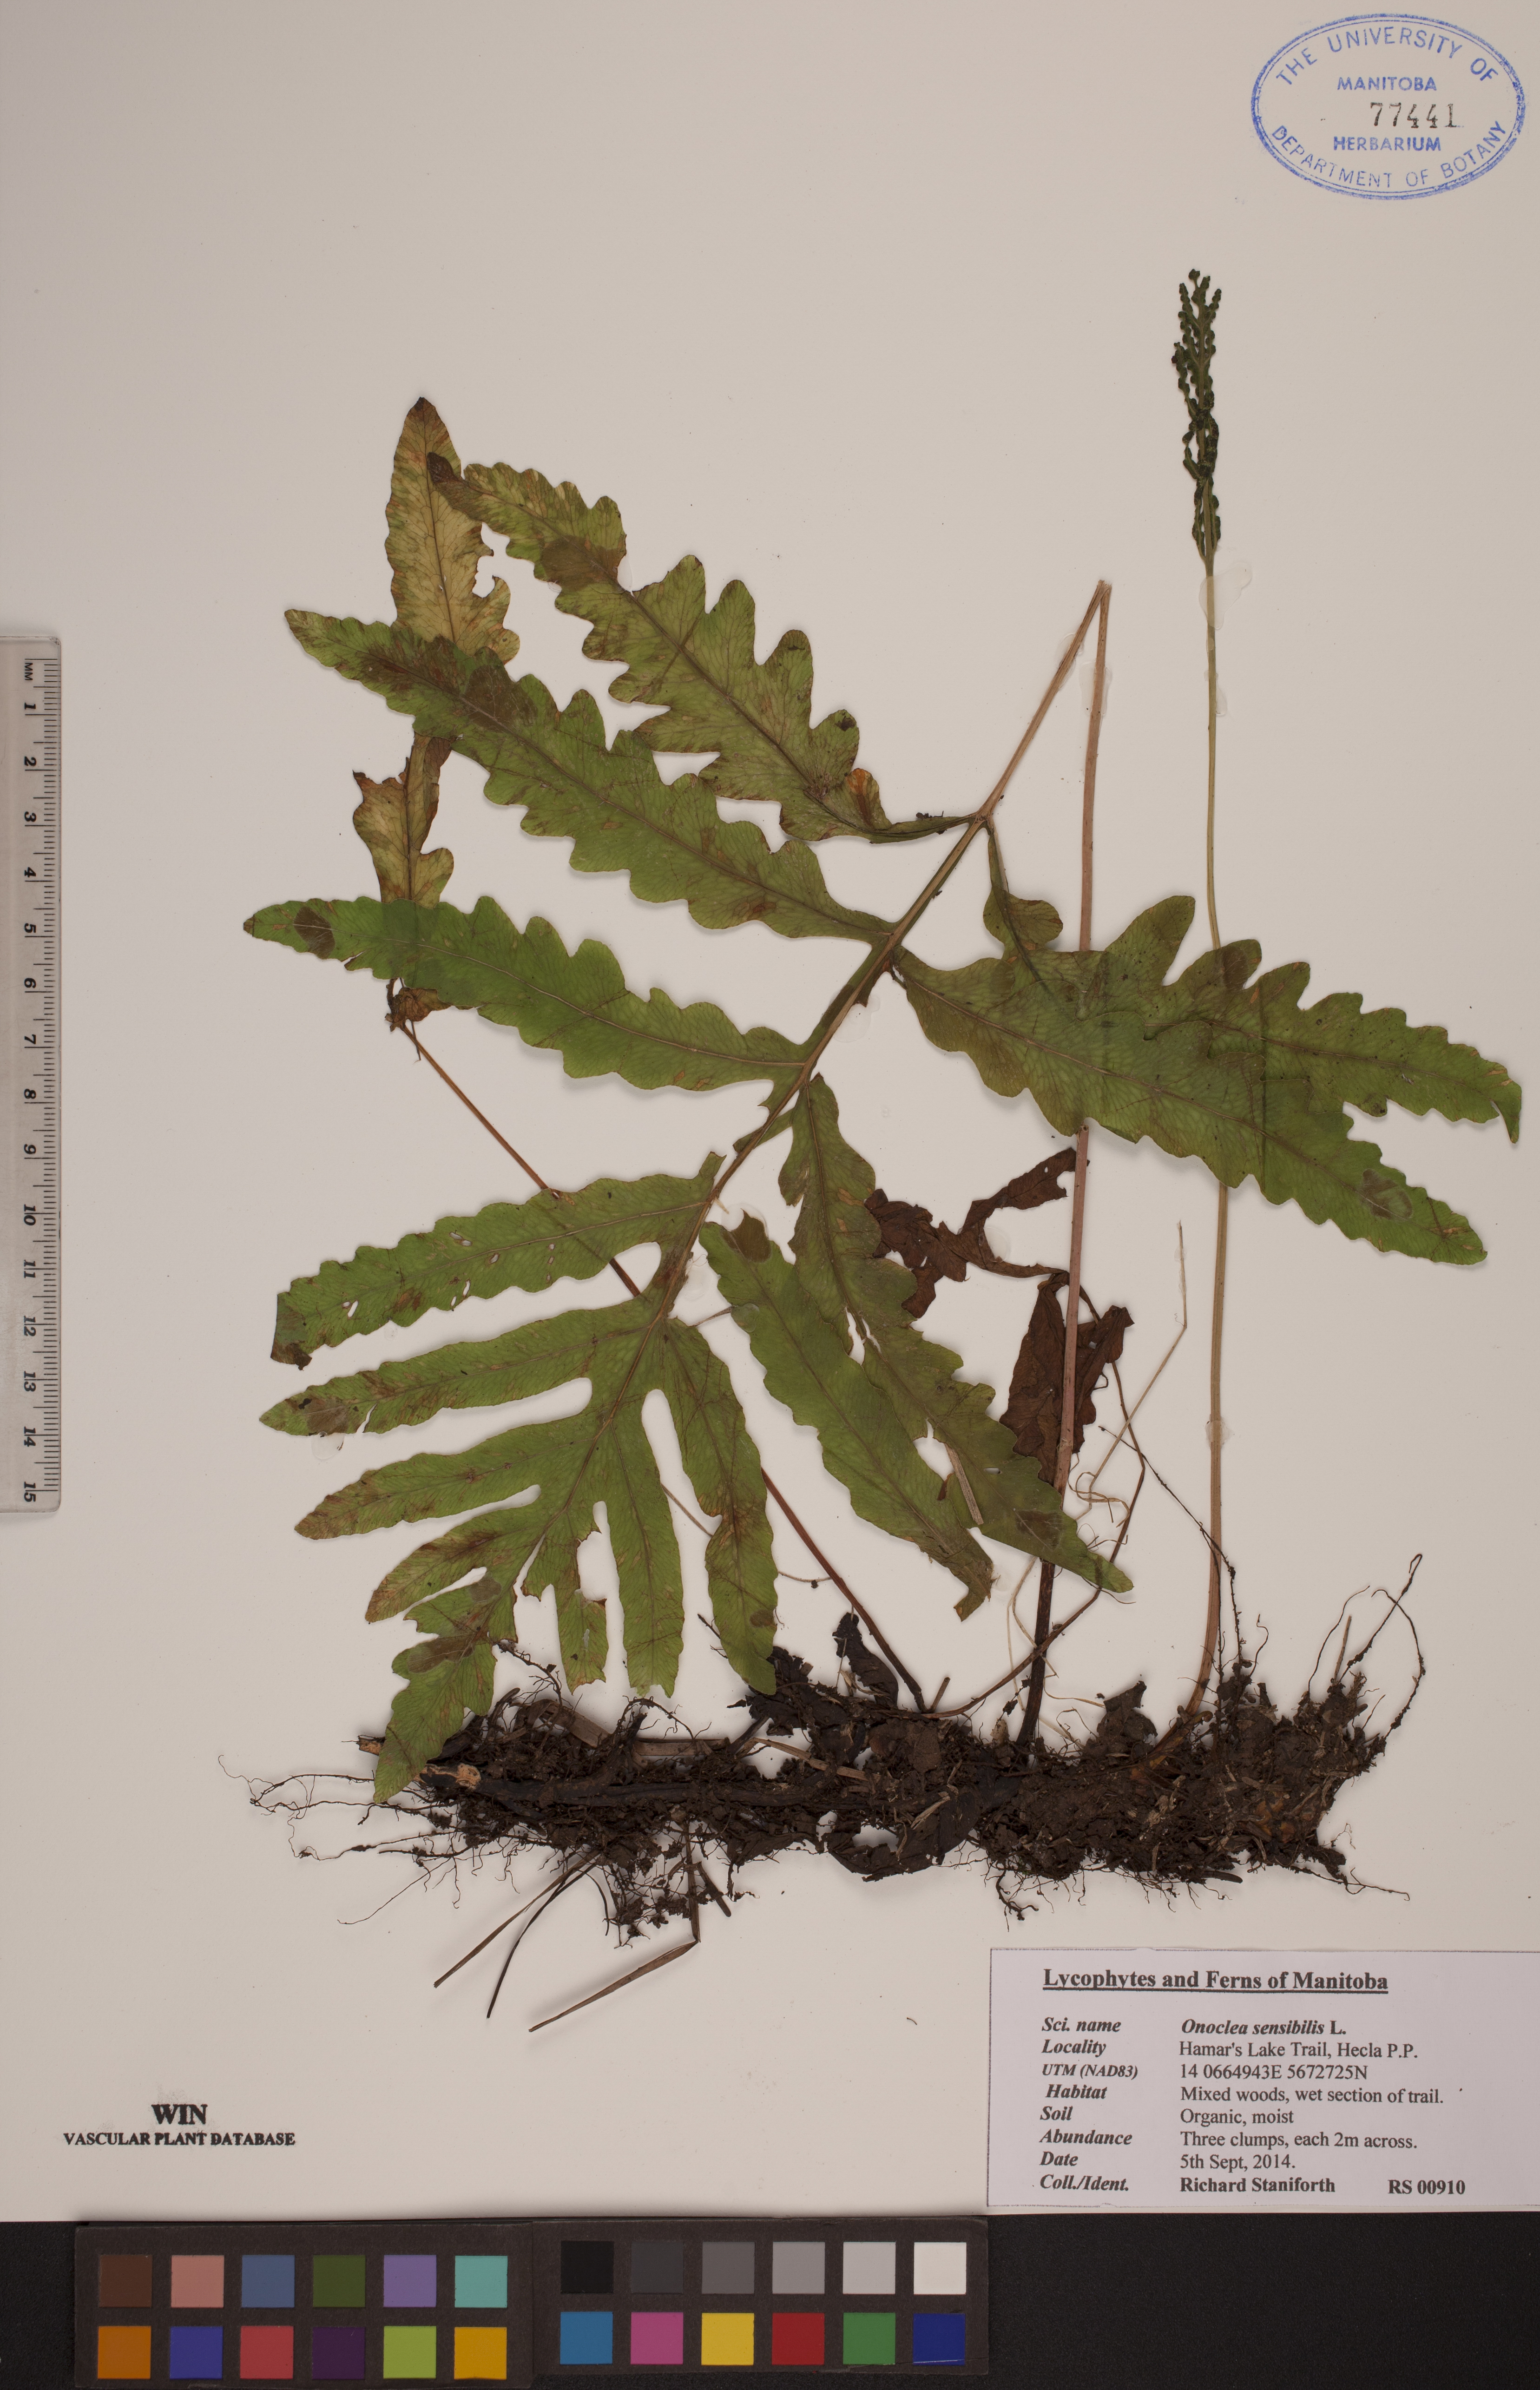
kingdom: Plantae
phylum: Tracheophyta
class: Polypodiopsida
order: Polypodiales
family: Onocleaceae
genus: Onoclea
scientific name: Onoclea sensibilis
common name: Sensitive fern
